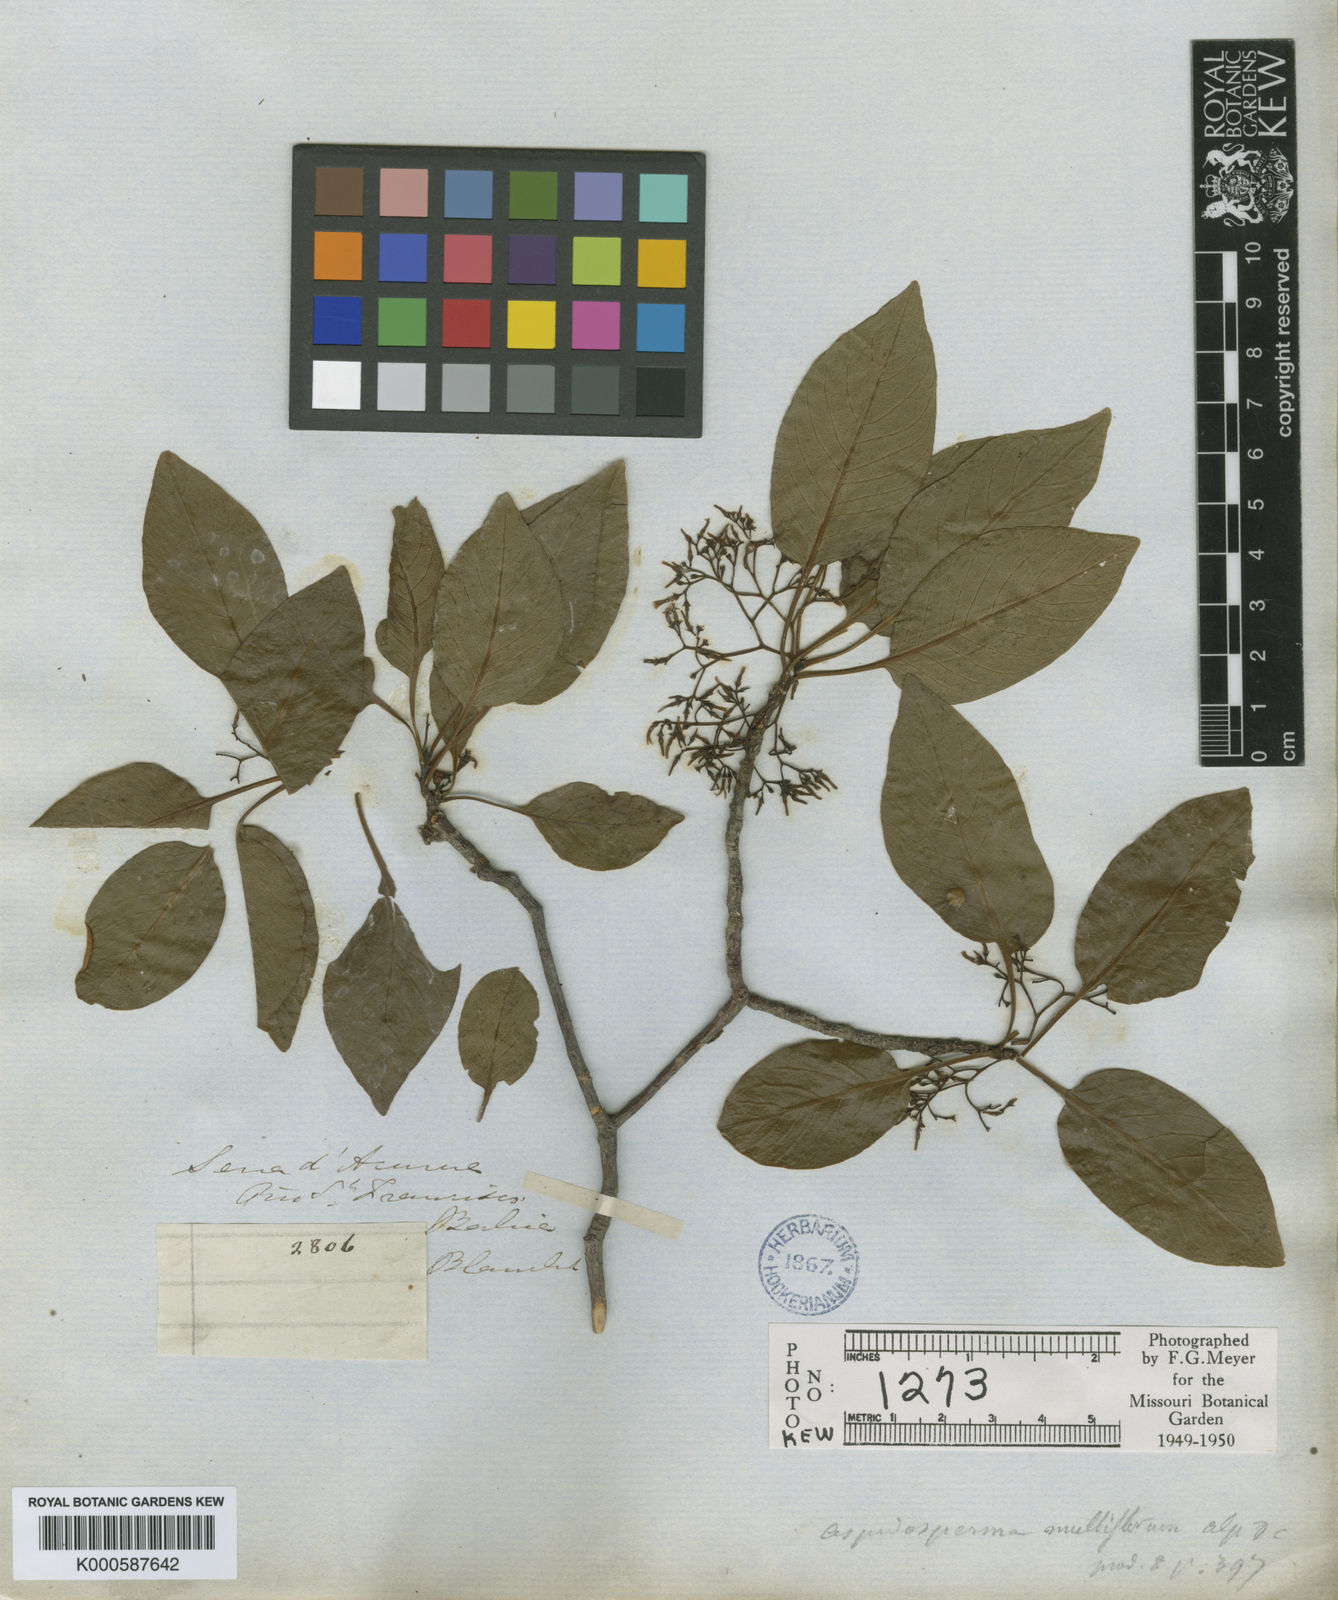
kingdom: Plantae
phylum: Tracheophyta
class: Magnoliopsida
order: Gentianales
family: Apocynaceae
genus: Aspidosperma
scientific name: Aspidosperma multiflorum
